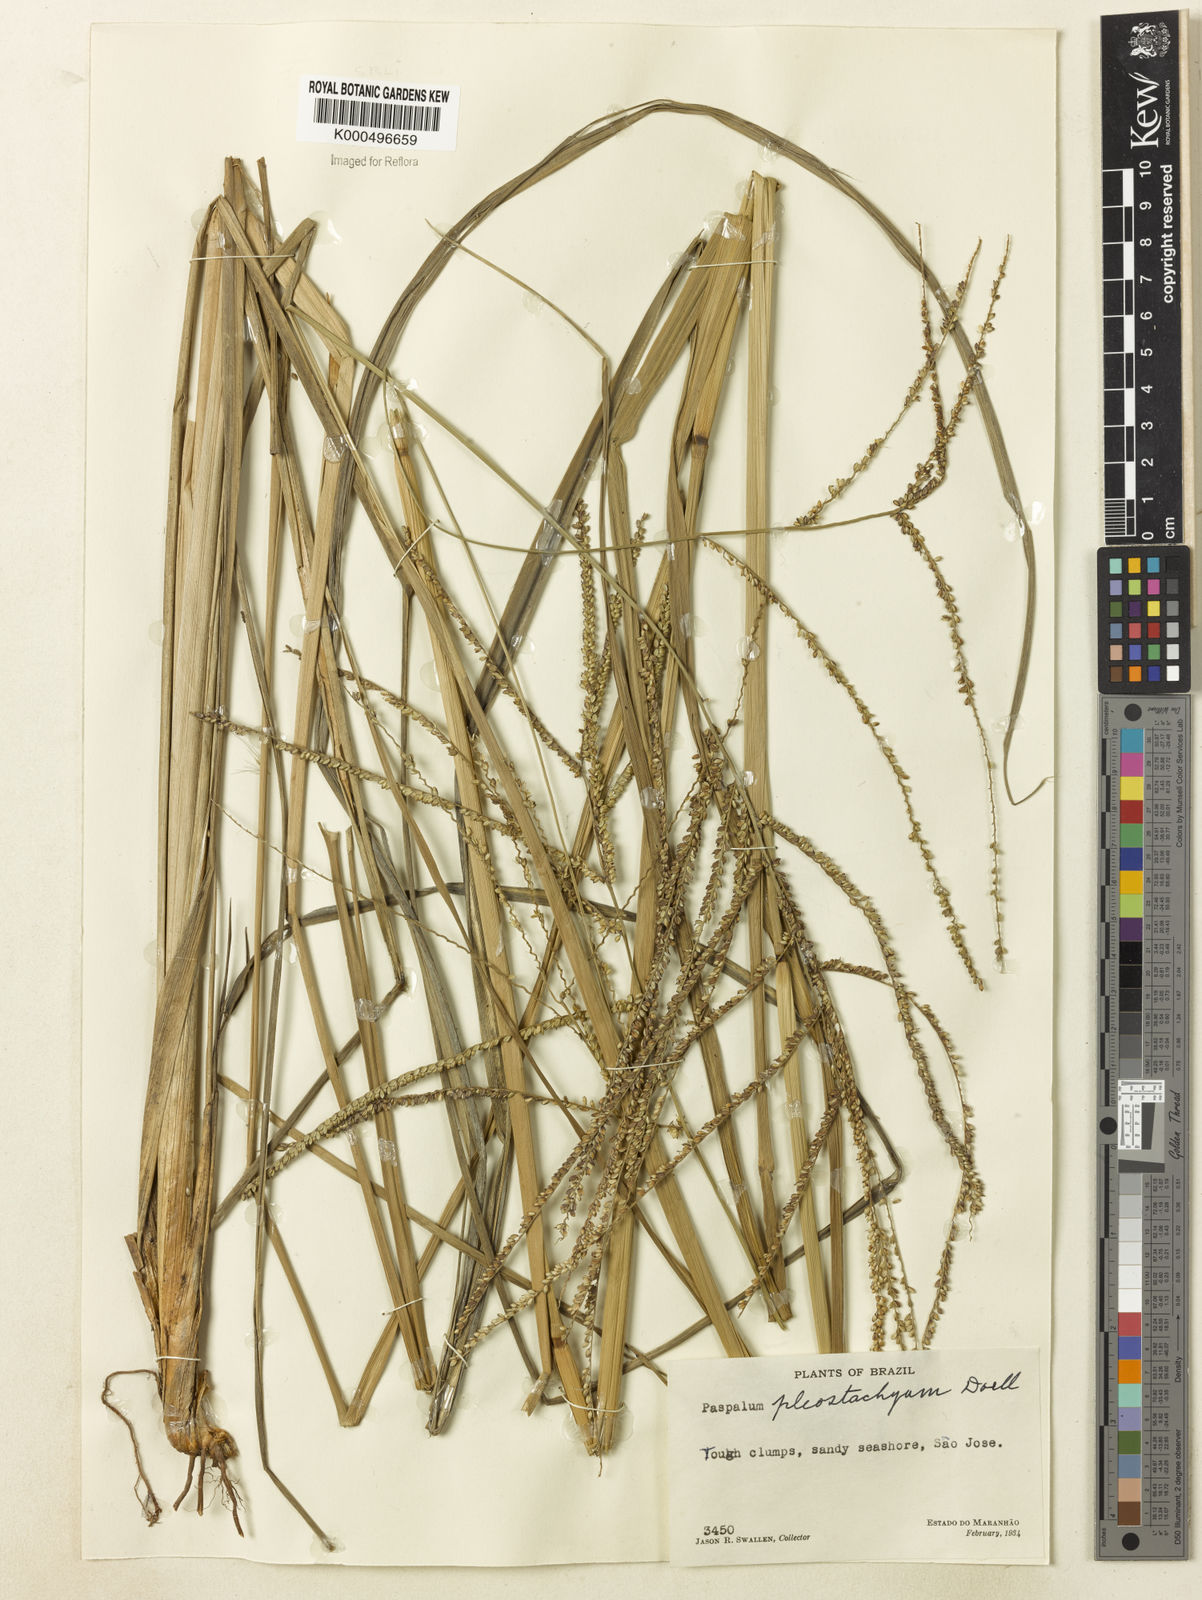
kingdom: Plantae
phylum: Tracheophyta
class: Liliopsida
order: Poales
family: Poaceae
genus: Paspalum
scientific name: Paspalum
